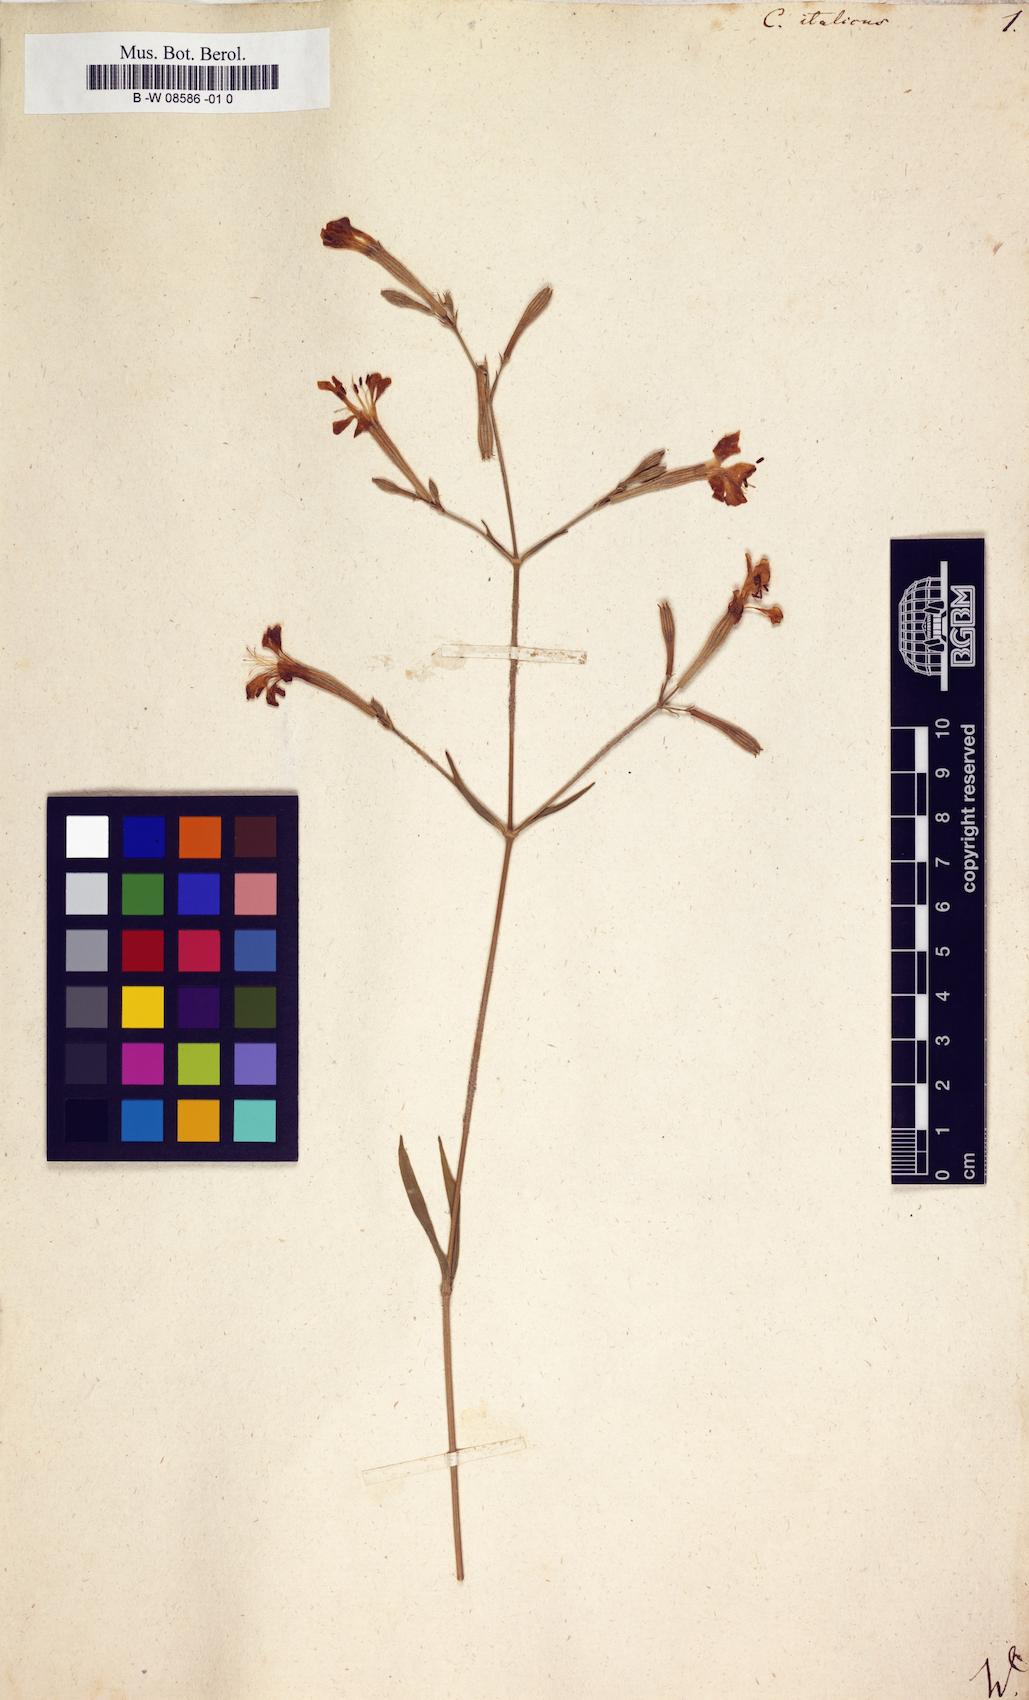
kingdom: Plantae
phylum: Tracheophyta
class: Magnoliopsida
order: Caryophyllales
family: Caryophyllaceae
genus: Silene
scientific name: Silene italica
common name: Italian catchfly
